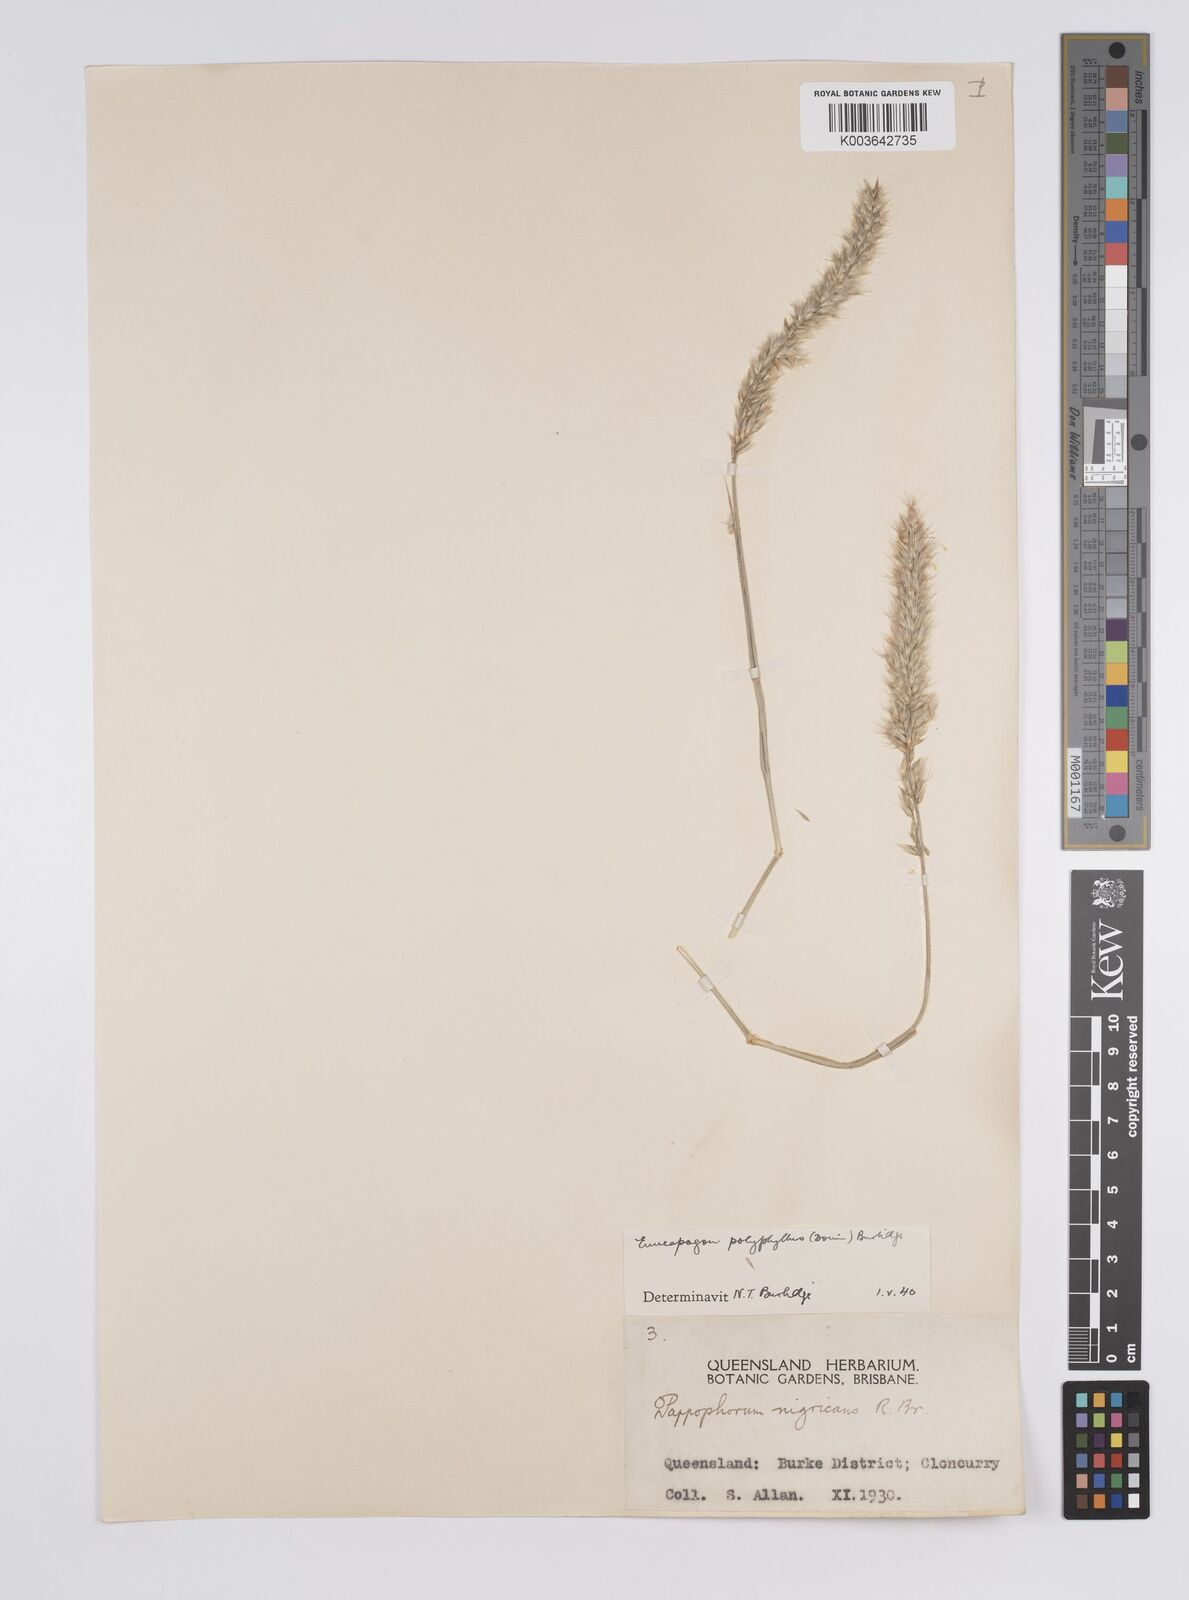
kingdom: Plantae
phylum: Tracheophyta
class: Liliopsida
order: Poales
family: Poaceae
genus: Enneapogon
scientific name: Enneapogon polyphyllus
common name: Leafy nineawn
